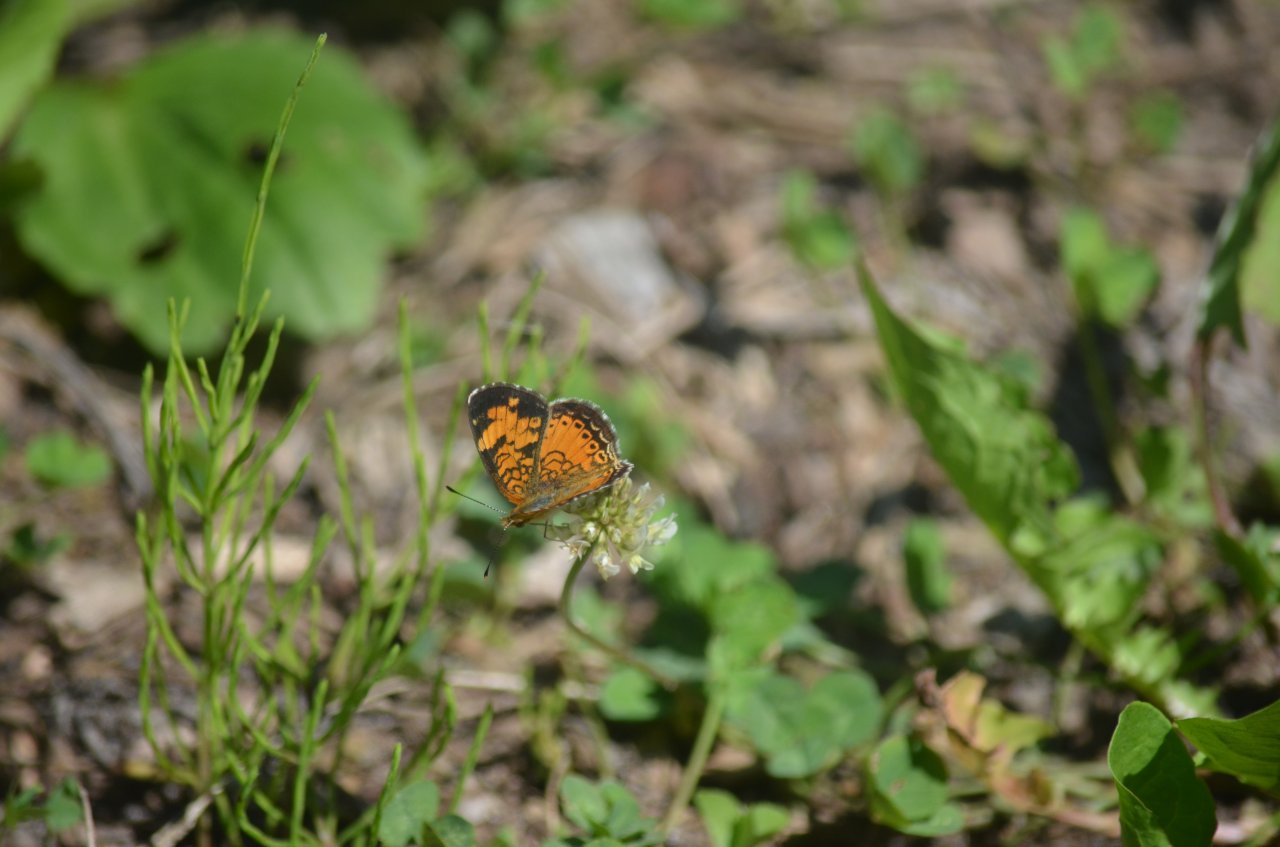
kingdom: Animalia
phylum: Arthropoda
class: Insecta
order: Lepidoptera
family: Nymphalidae
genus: Phyciodes
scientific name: Phyciodes tharos
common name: Northern Crescent
